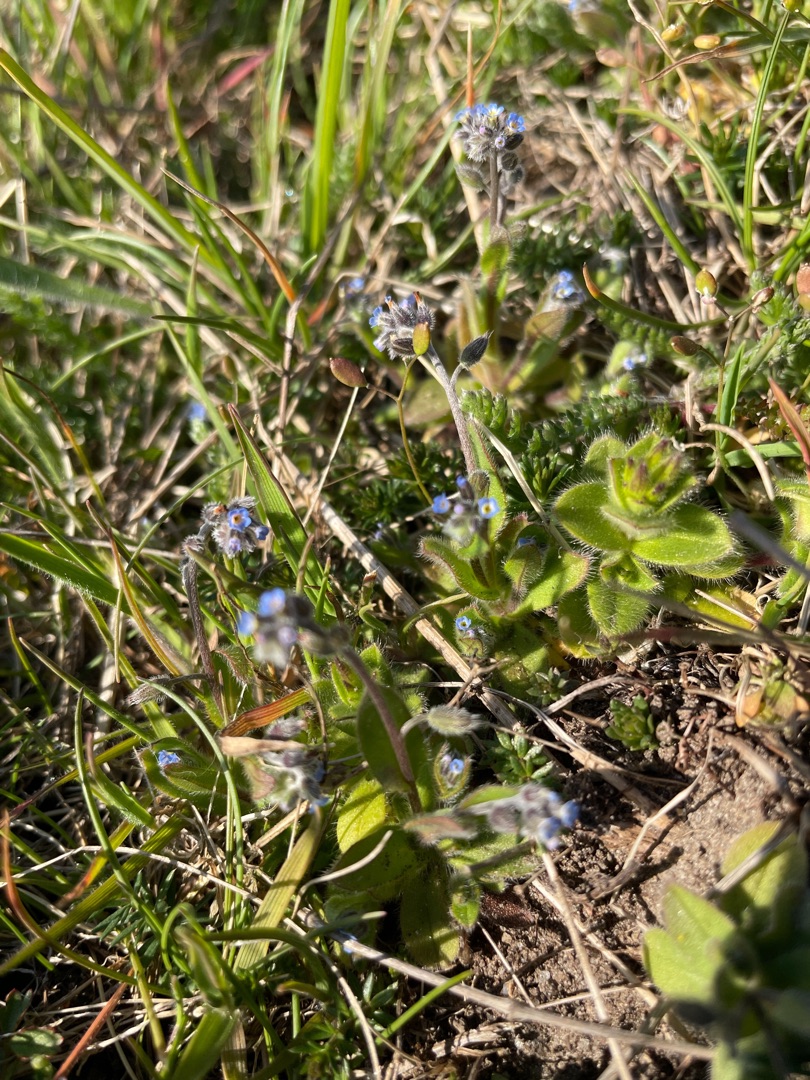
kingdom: Plantae
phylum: Tracheophyta
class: Magnoliopsida
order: Boraginales
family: Boraginaceae
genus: Myosotis
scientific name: Myosotis ramosissima
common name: Bakke-forglemmigej
